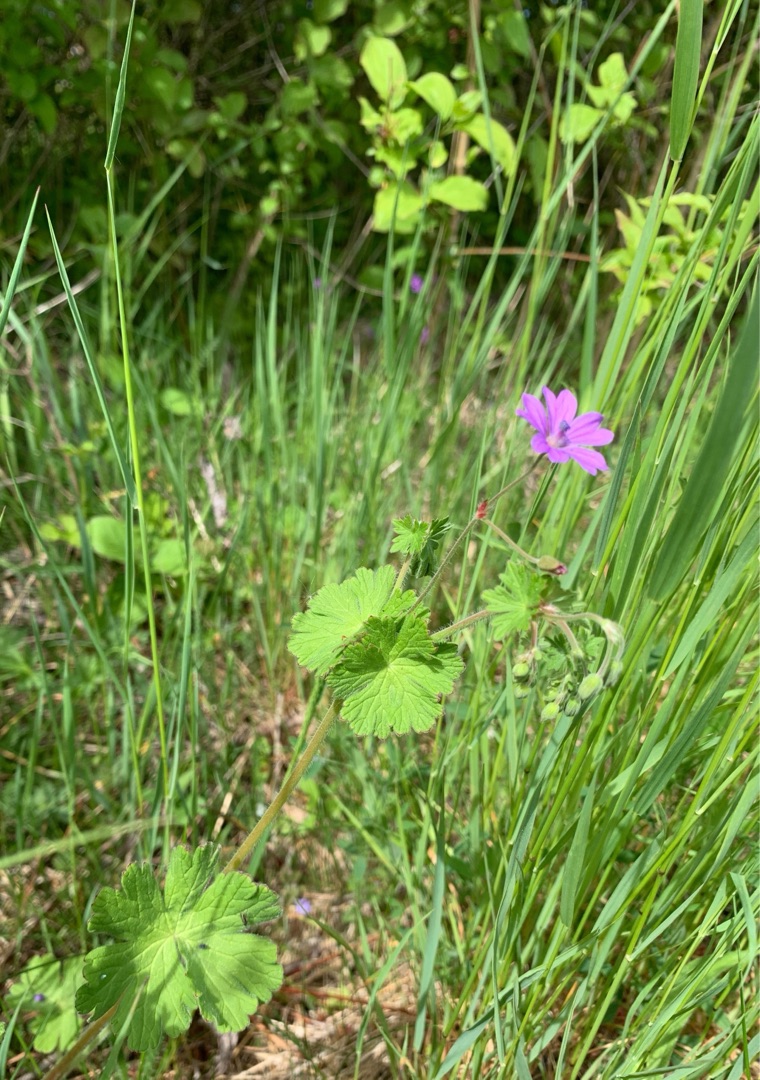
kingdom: Plantae
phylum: Tracheophyta
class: Magnoliopsida
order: Geraniales
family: Geraniaceae
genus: Geranium
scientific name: Geranium pyrenaicum
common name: Pyrenæisk storkenæb
